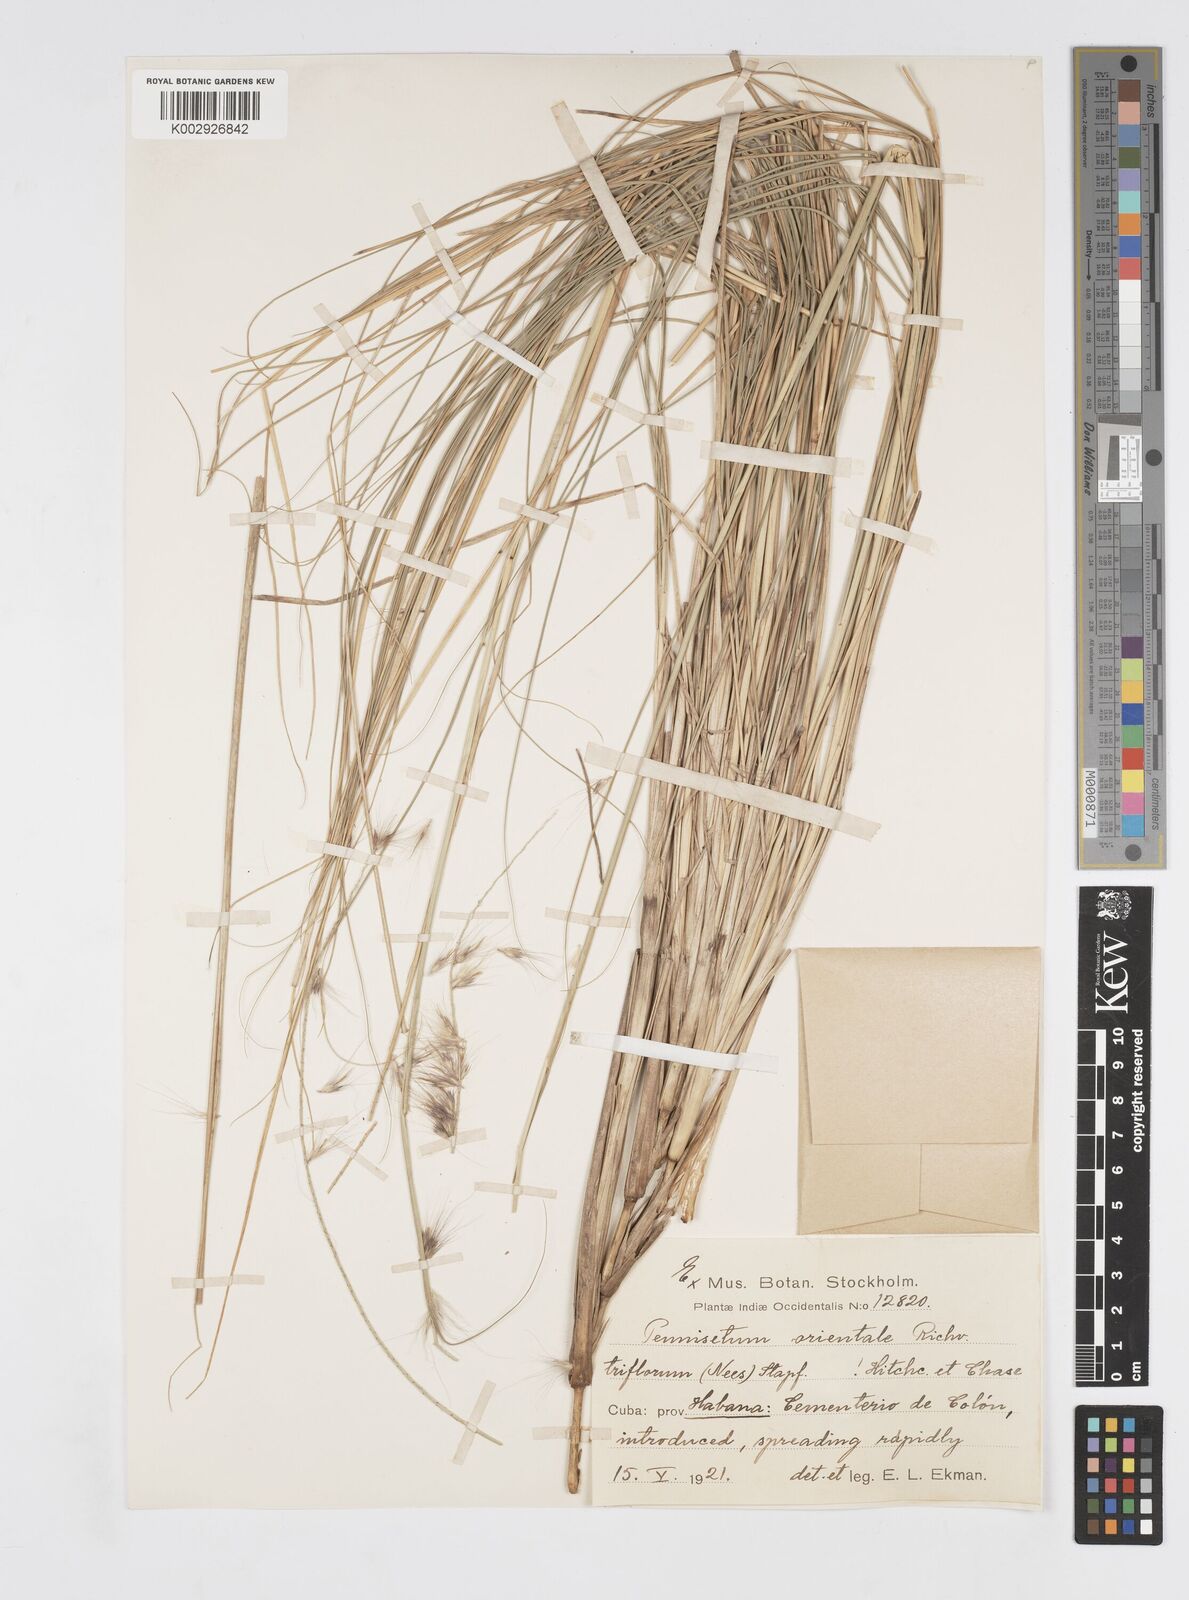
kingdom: Plantae
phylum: Tracheophyta
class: Liliopsida
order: Poales
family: Poaceae
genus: Cenchrus
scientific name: Cenchrus Pennisetum spec
